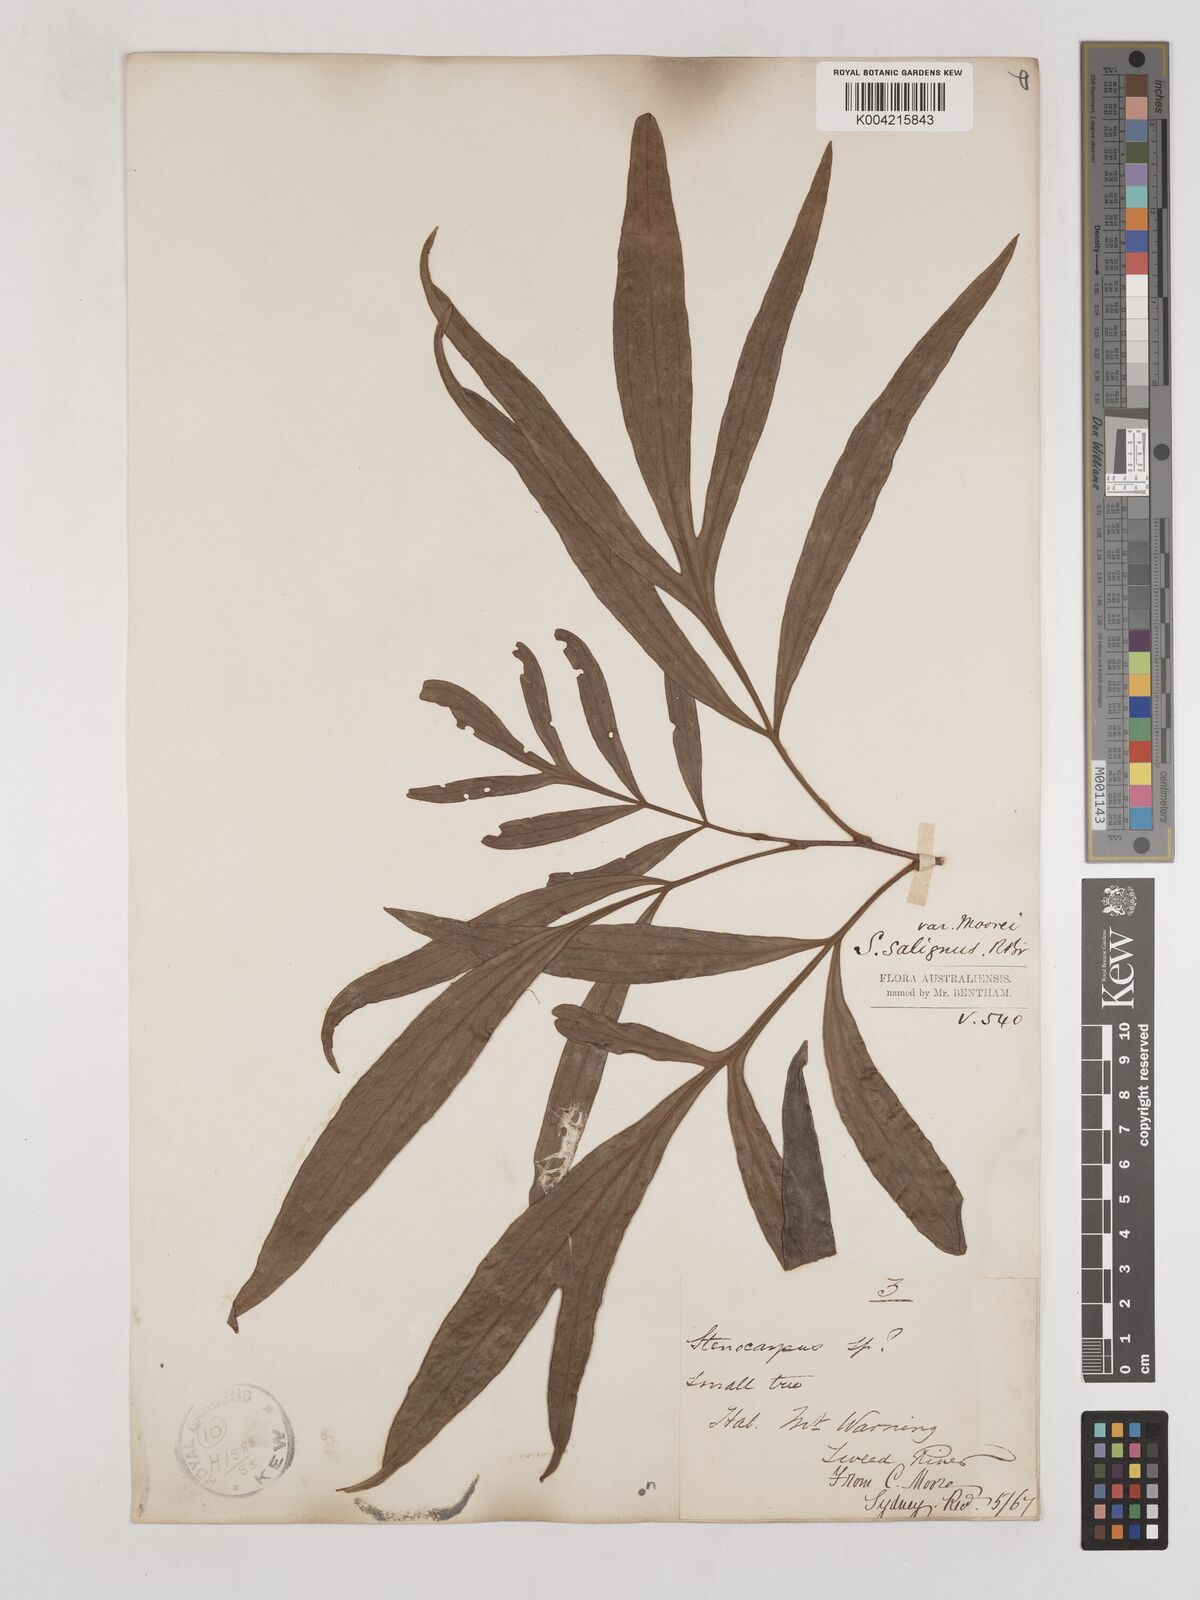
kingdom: Plantae
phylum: Tracheophyta
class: Magnoliopsida
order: Proteales
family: Proteaceae
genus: Stenocarpus
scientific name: Stenocarpus salignus
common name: Red silky-oak
